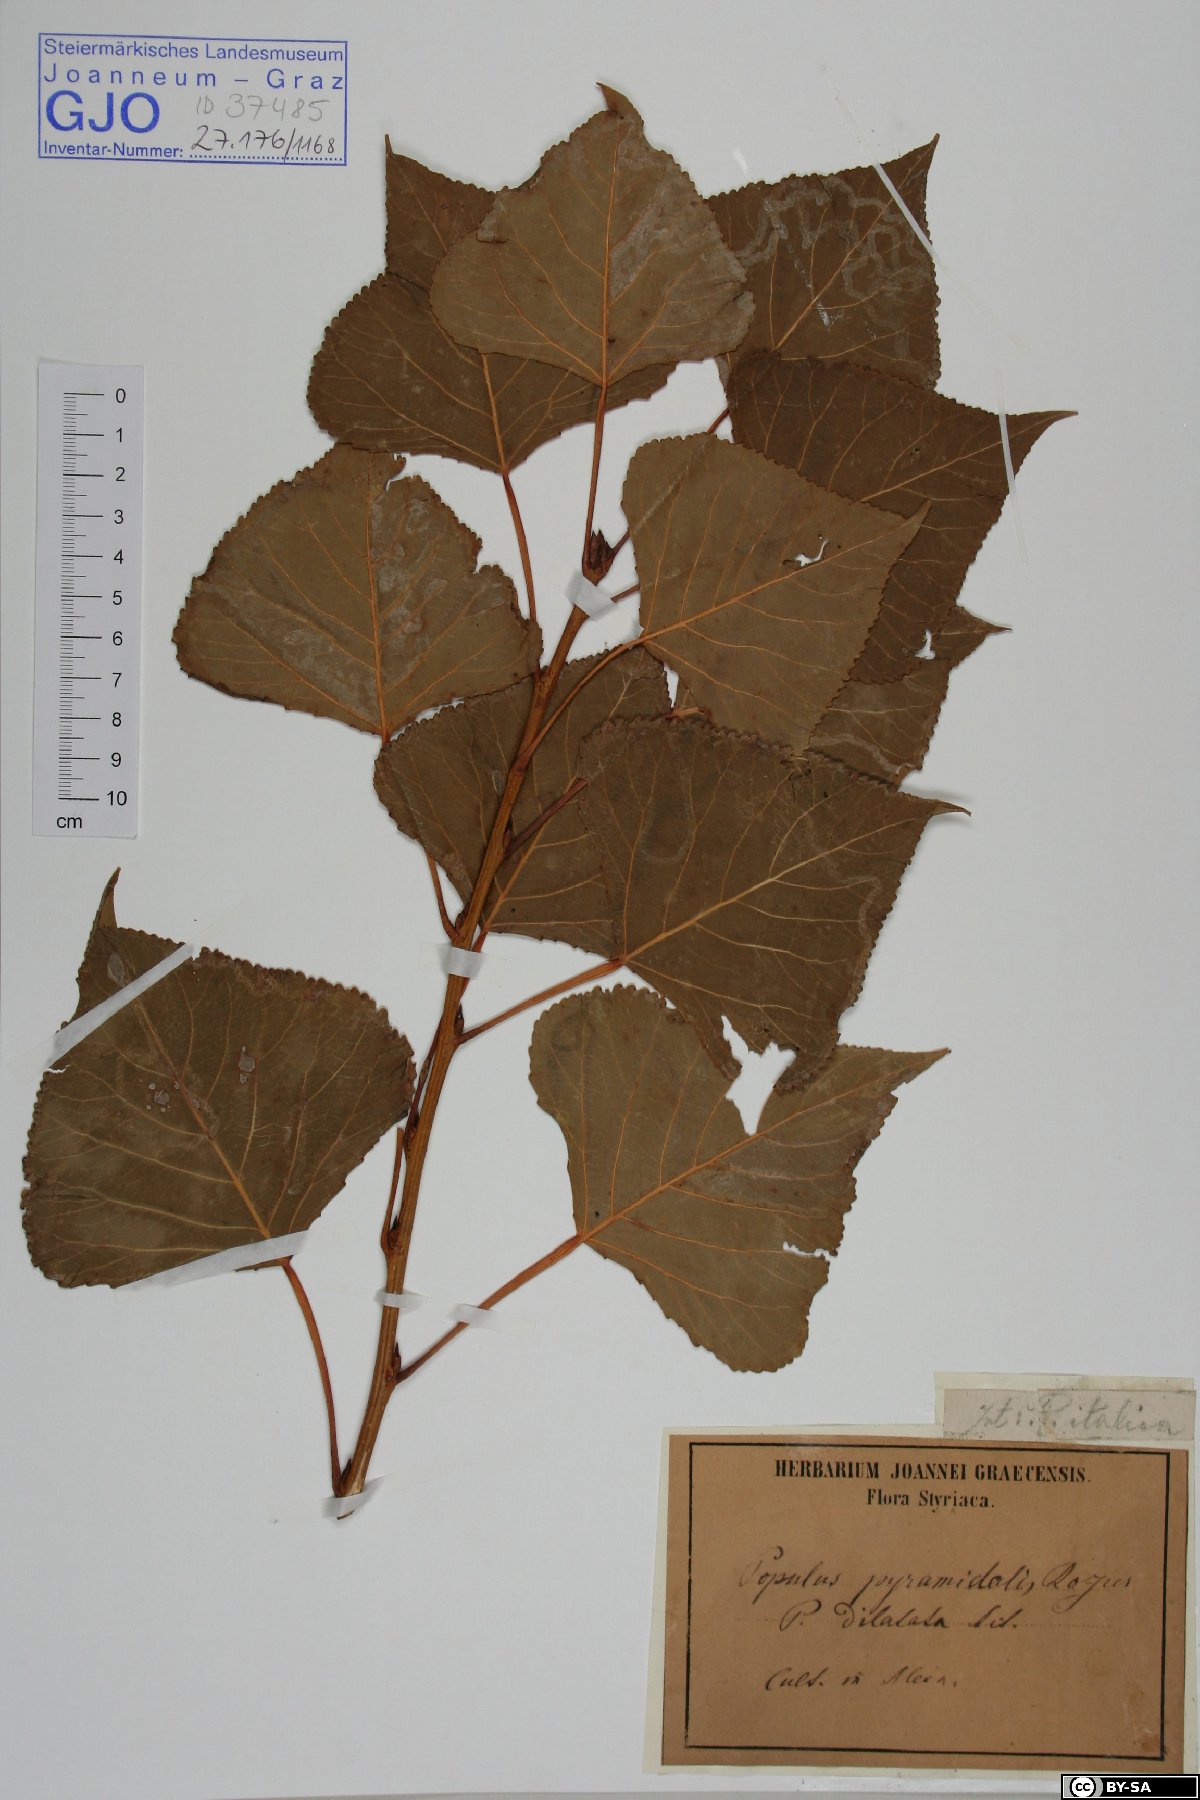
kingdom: Plantae
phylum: Tracheophyta
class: Magnoliopsida
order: Malpighiales
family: Salicaceae
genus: Populus
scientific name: Populus nigra
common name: Black poplar
